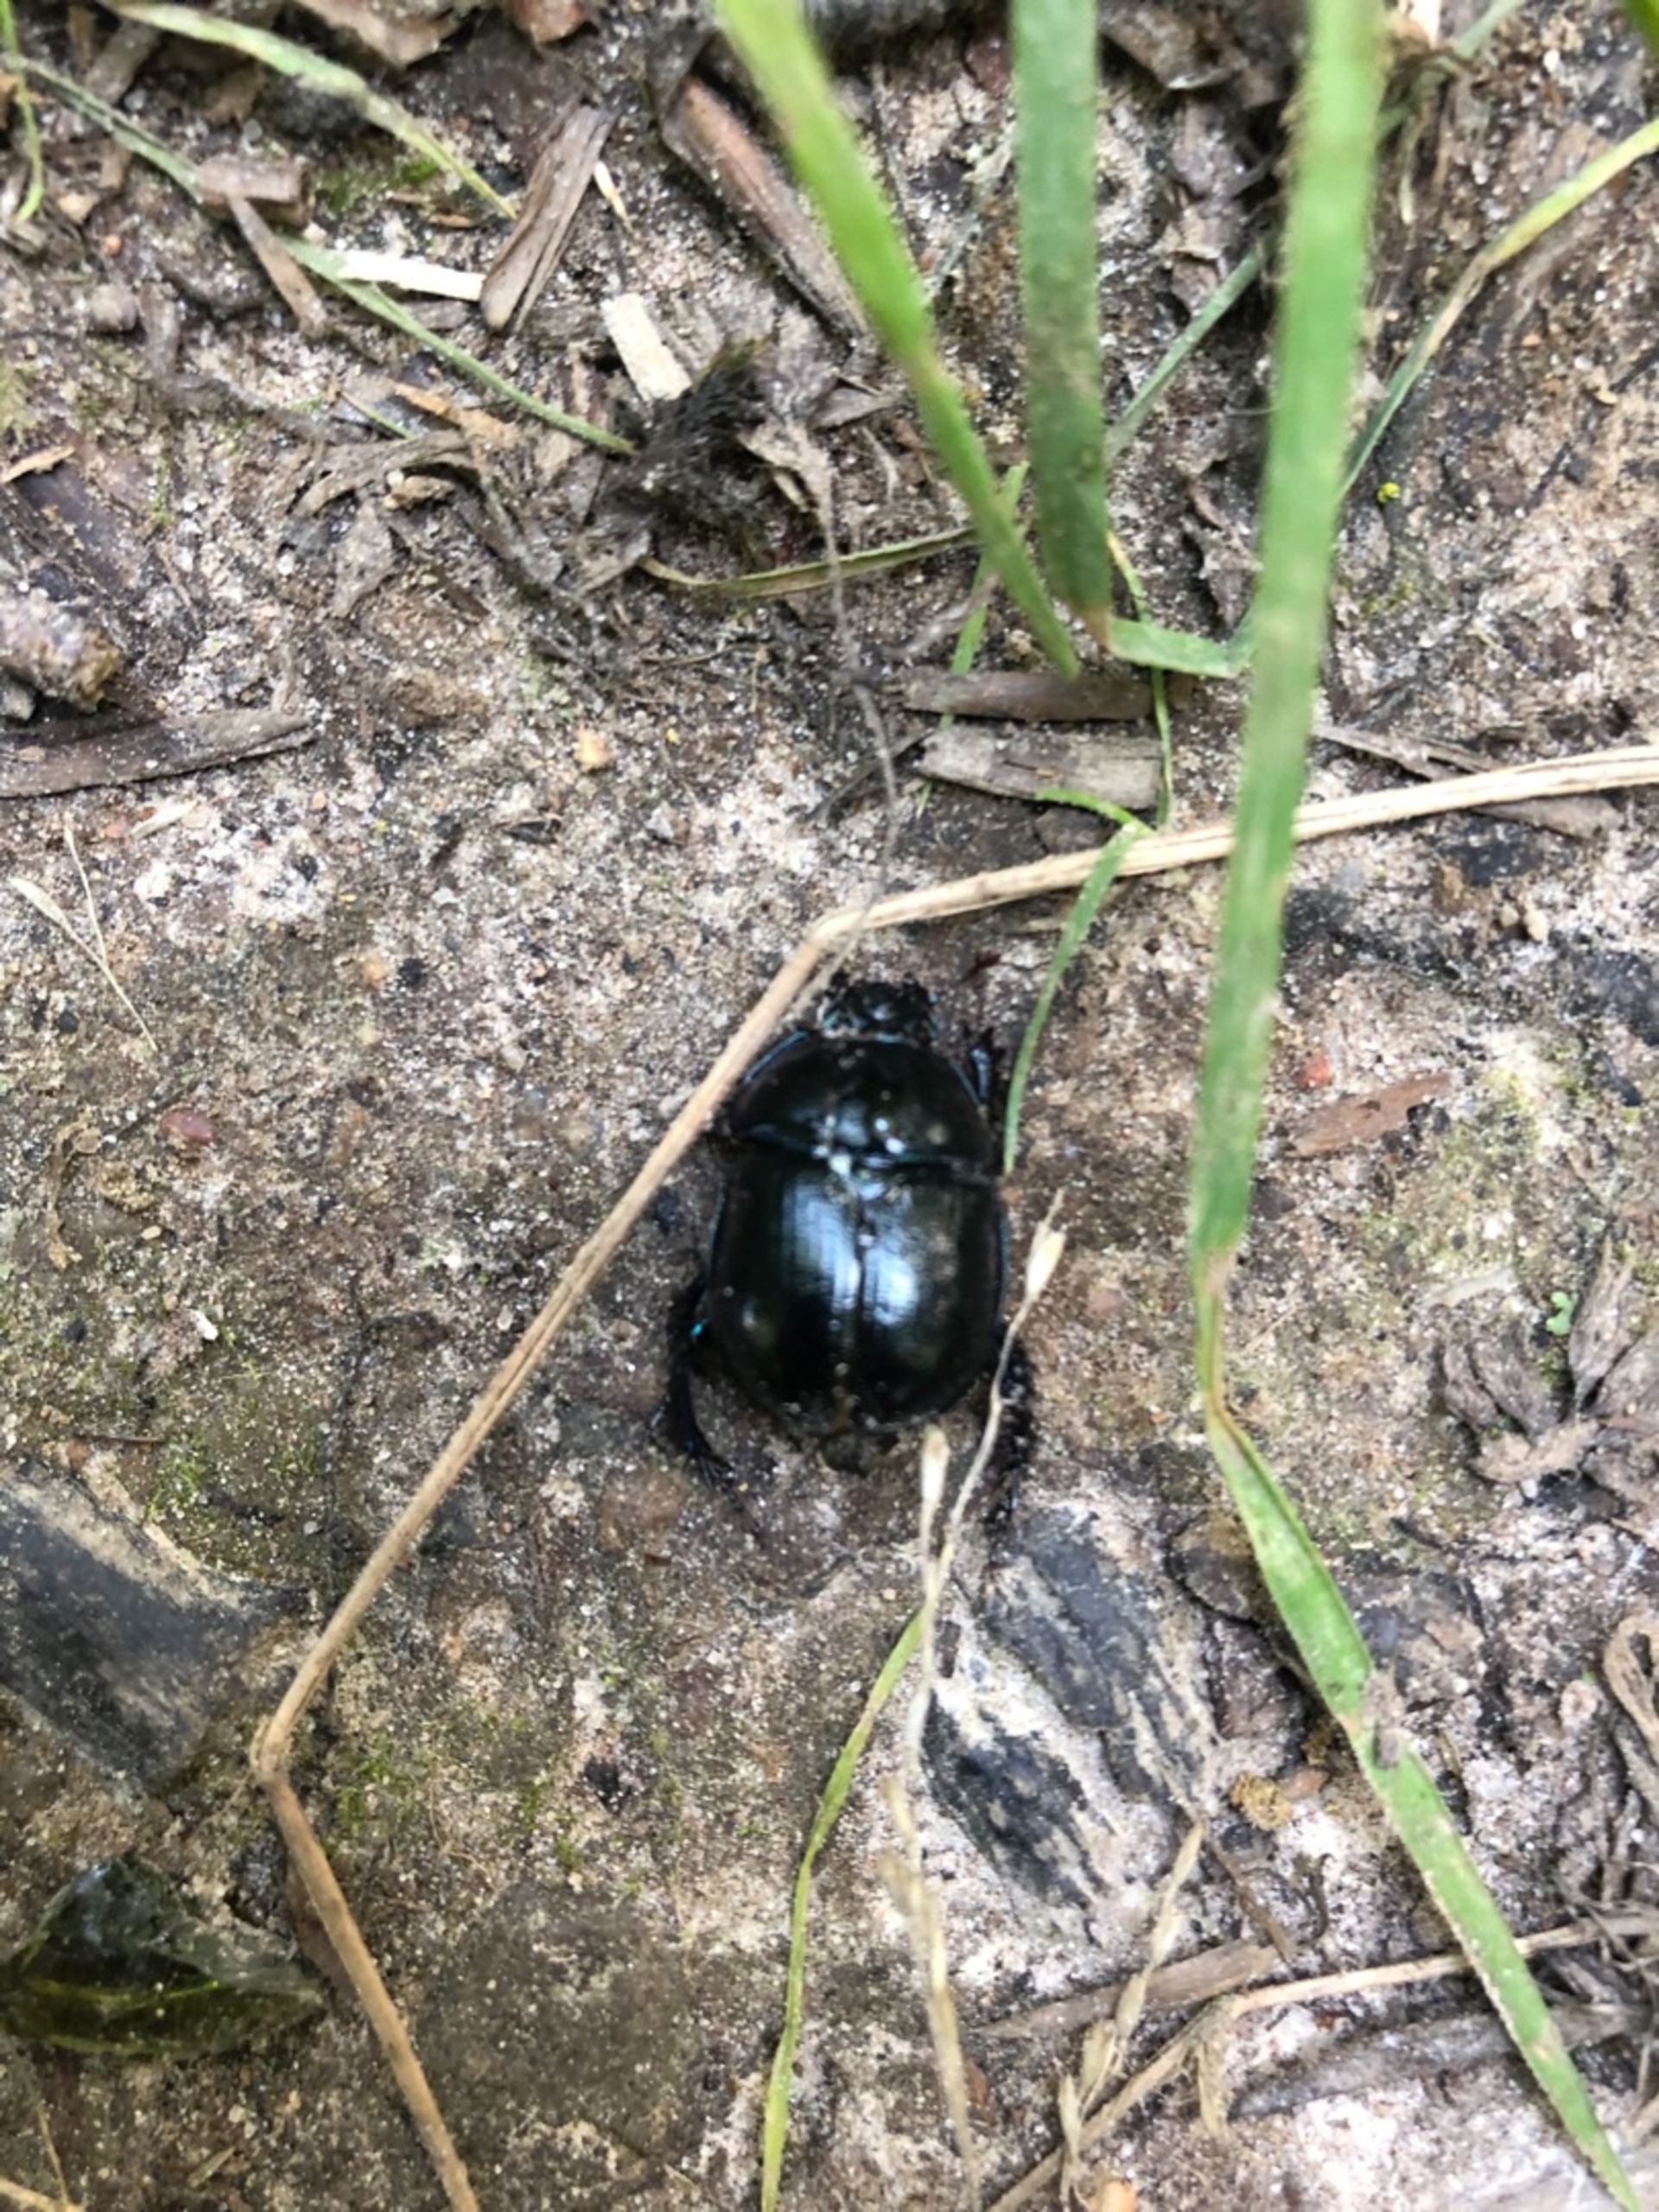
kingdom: Animalia
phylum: Arthropoda
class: Insecta
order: Coleoptera
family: Geotrupidae
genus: Anoplotrupes
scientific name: Anoplotrupes stercorosus
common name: Skovskarnbasse
